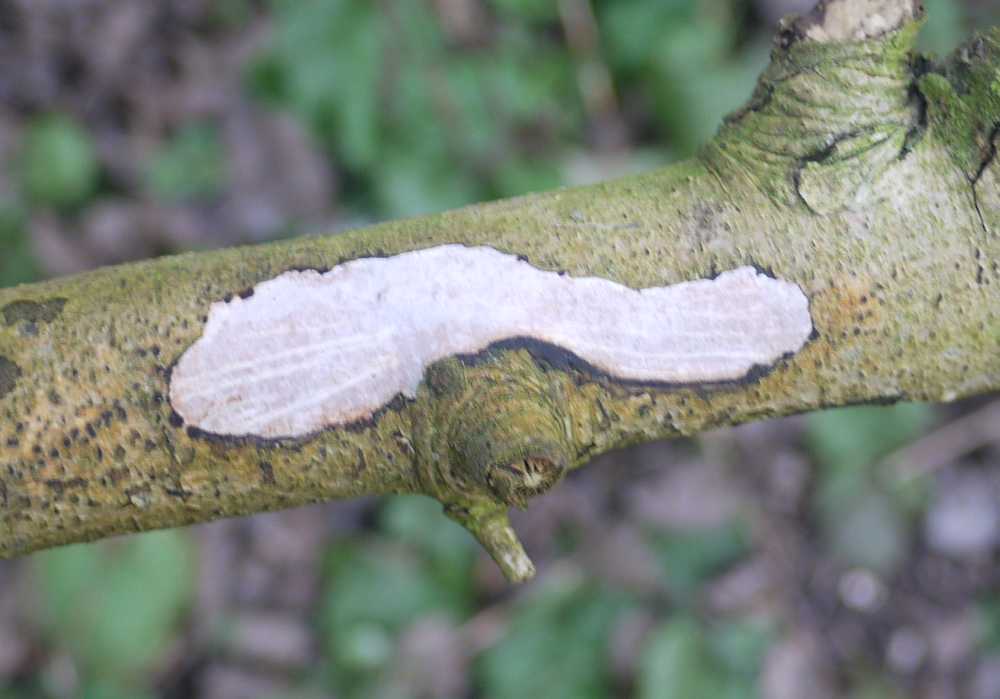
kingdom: Fungi
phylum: Basidiomycota
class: Agaricomycetes
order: Corticiales
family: Vuilleminiaceae
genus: Vuilleminia
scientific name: Vuilleminia cystidiata
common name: tjørne-barksprænger
